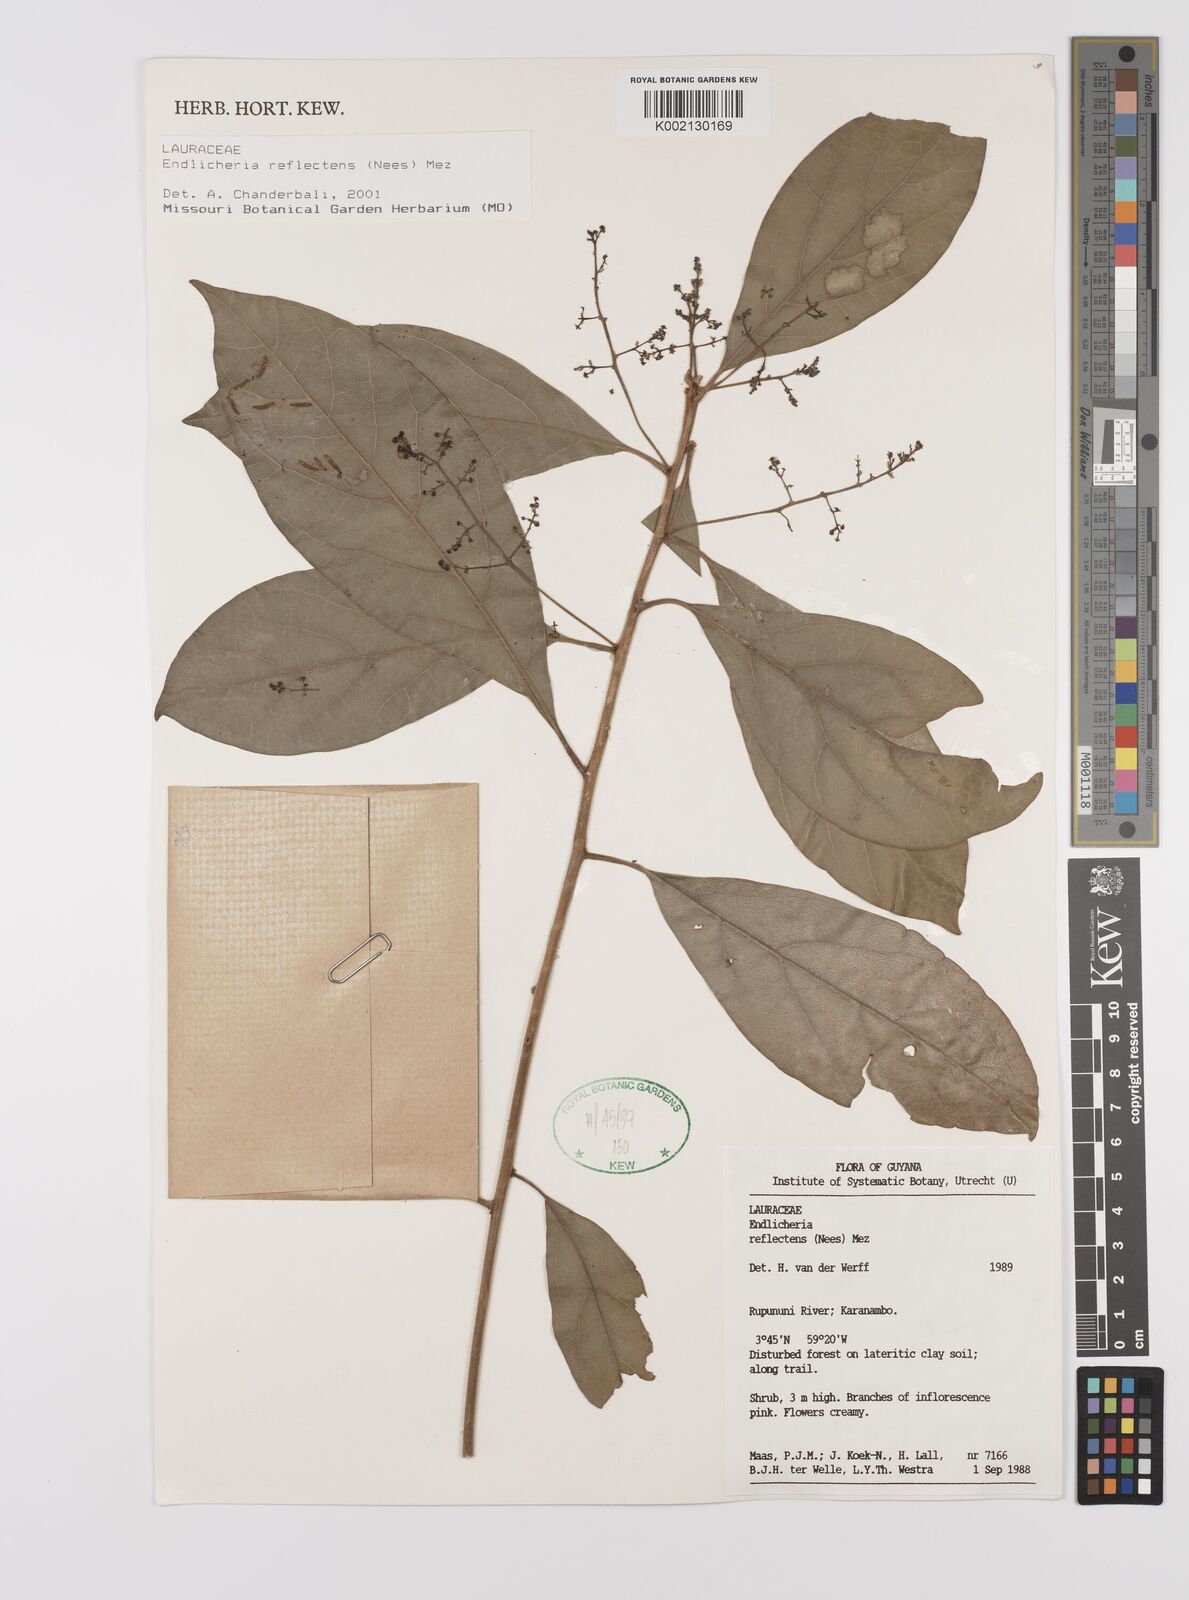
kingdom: Plantae
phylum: Tracheophyta
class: Magnoliopsida
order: Laurales
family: Lauraceae
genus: Endlicheria
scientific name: Endlicheria reflectens
